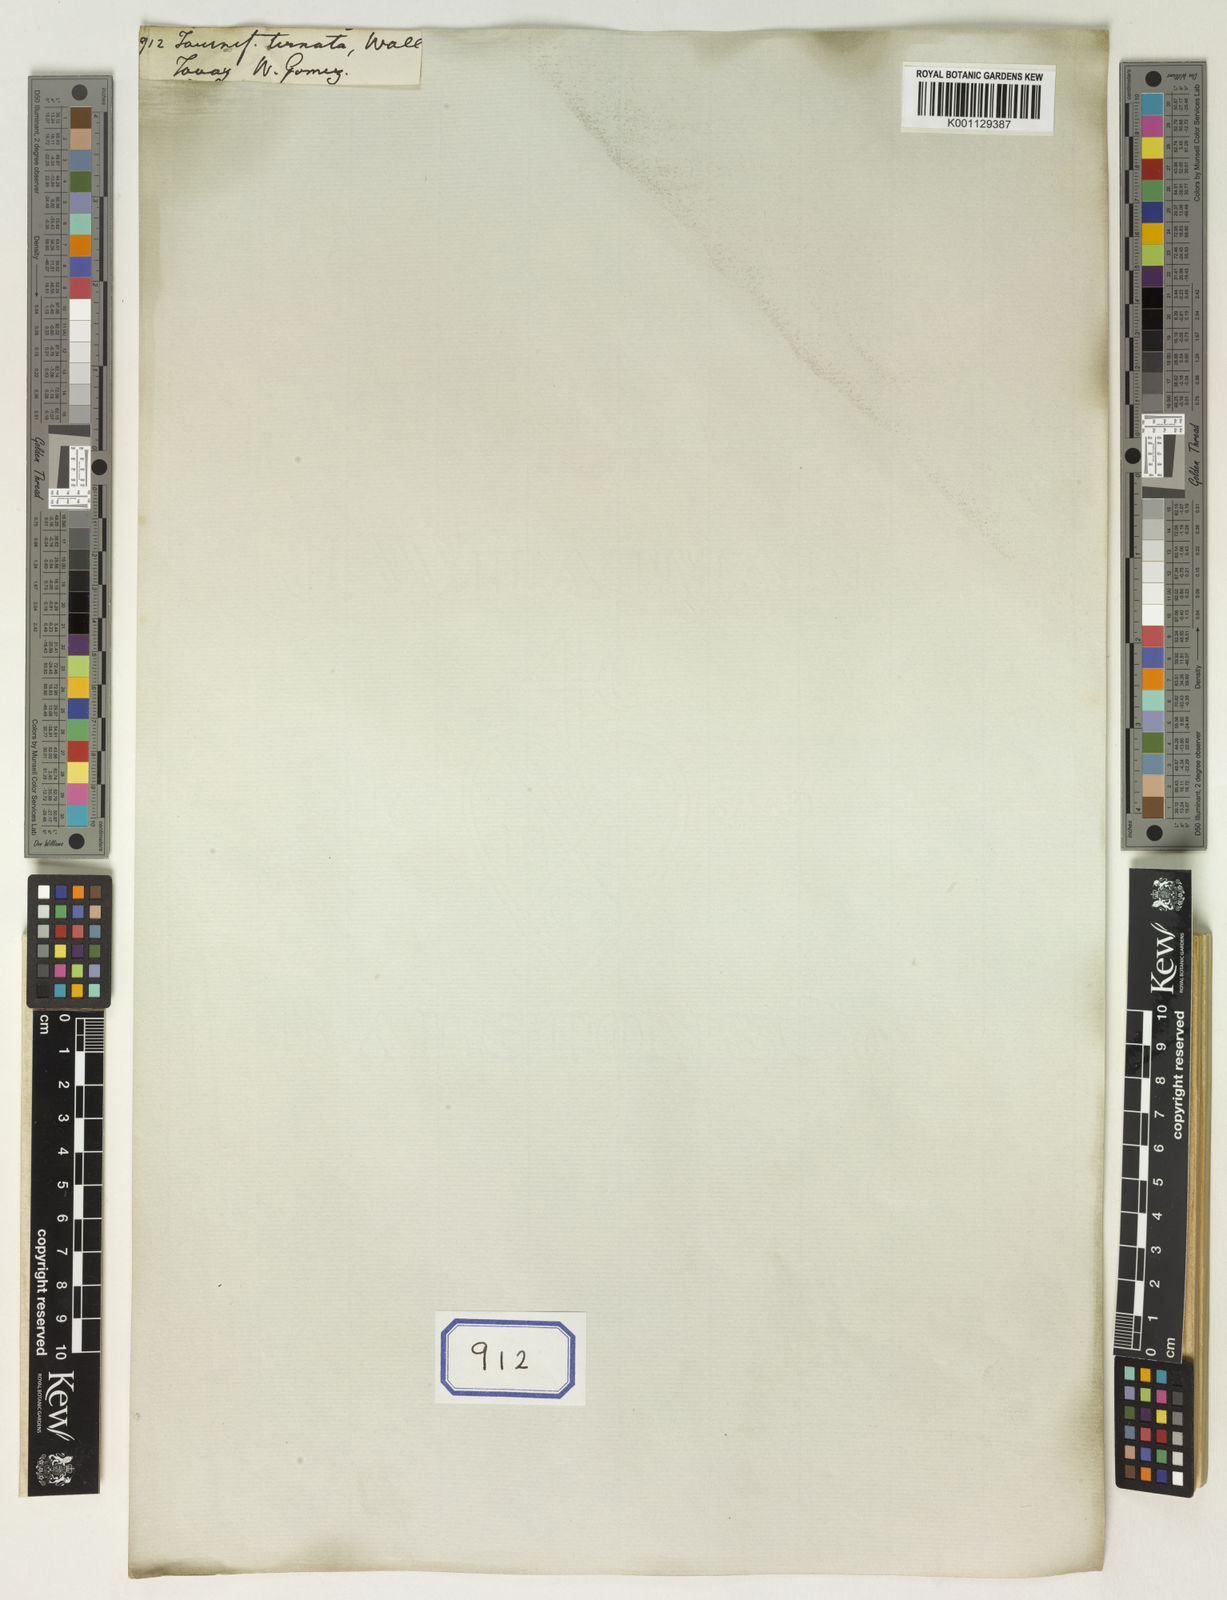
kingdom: Plantae
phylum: Tracheophyta
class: Magnoliopsida
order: Boraginales
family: Heliotropiaceae
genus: Tournefortia
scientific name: Tournefortia ternata
